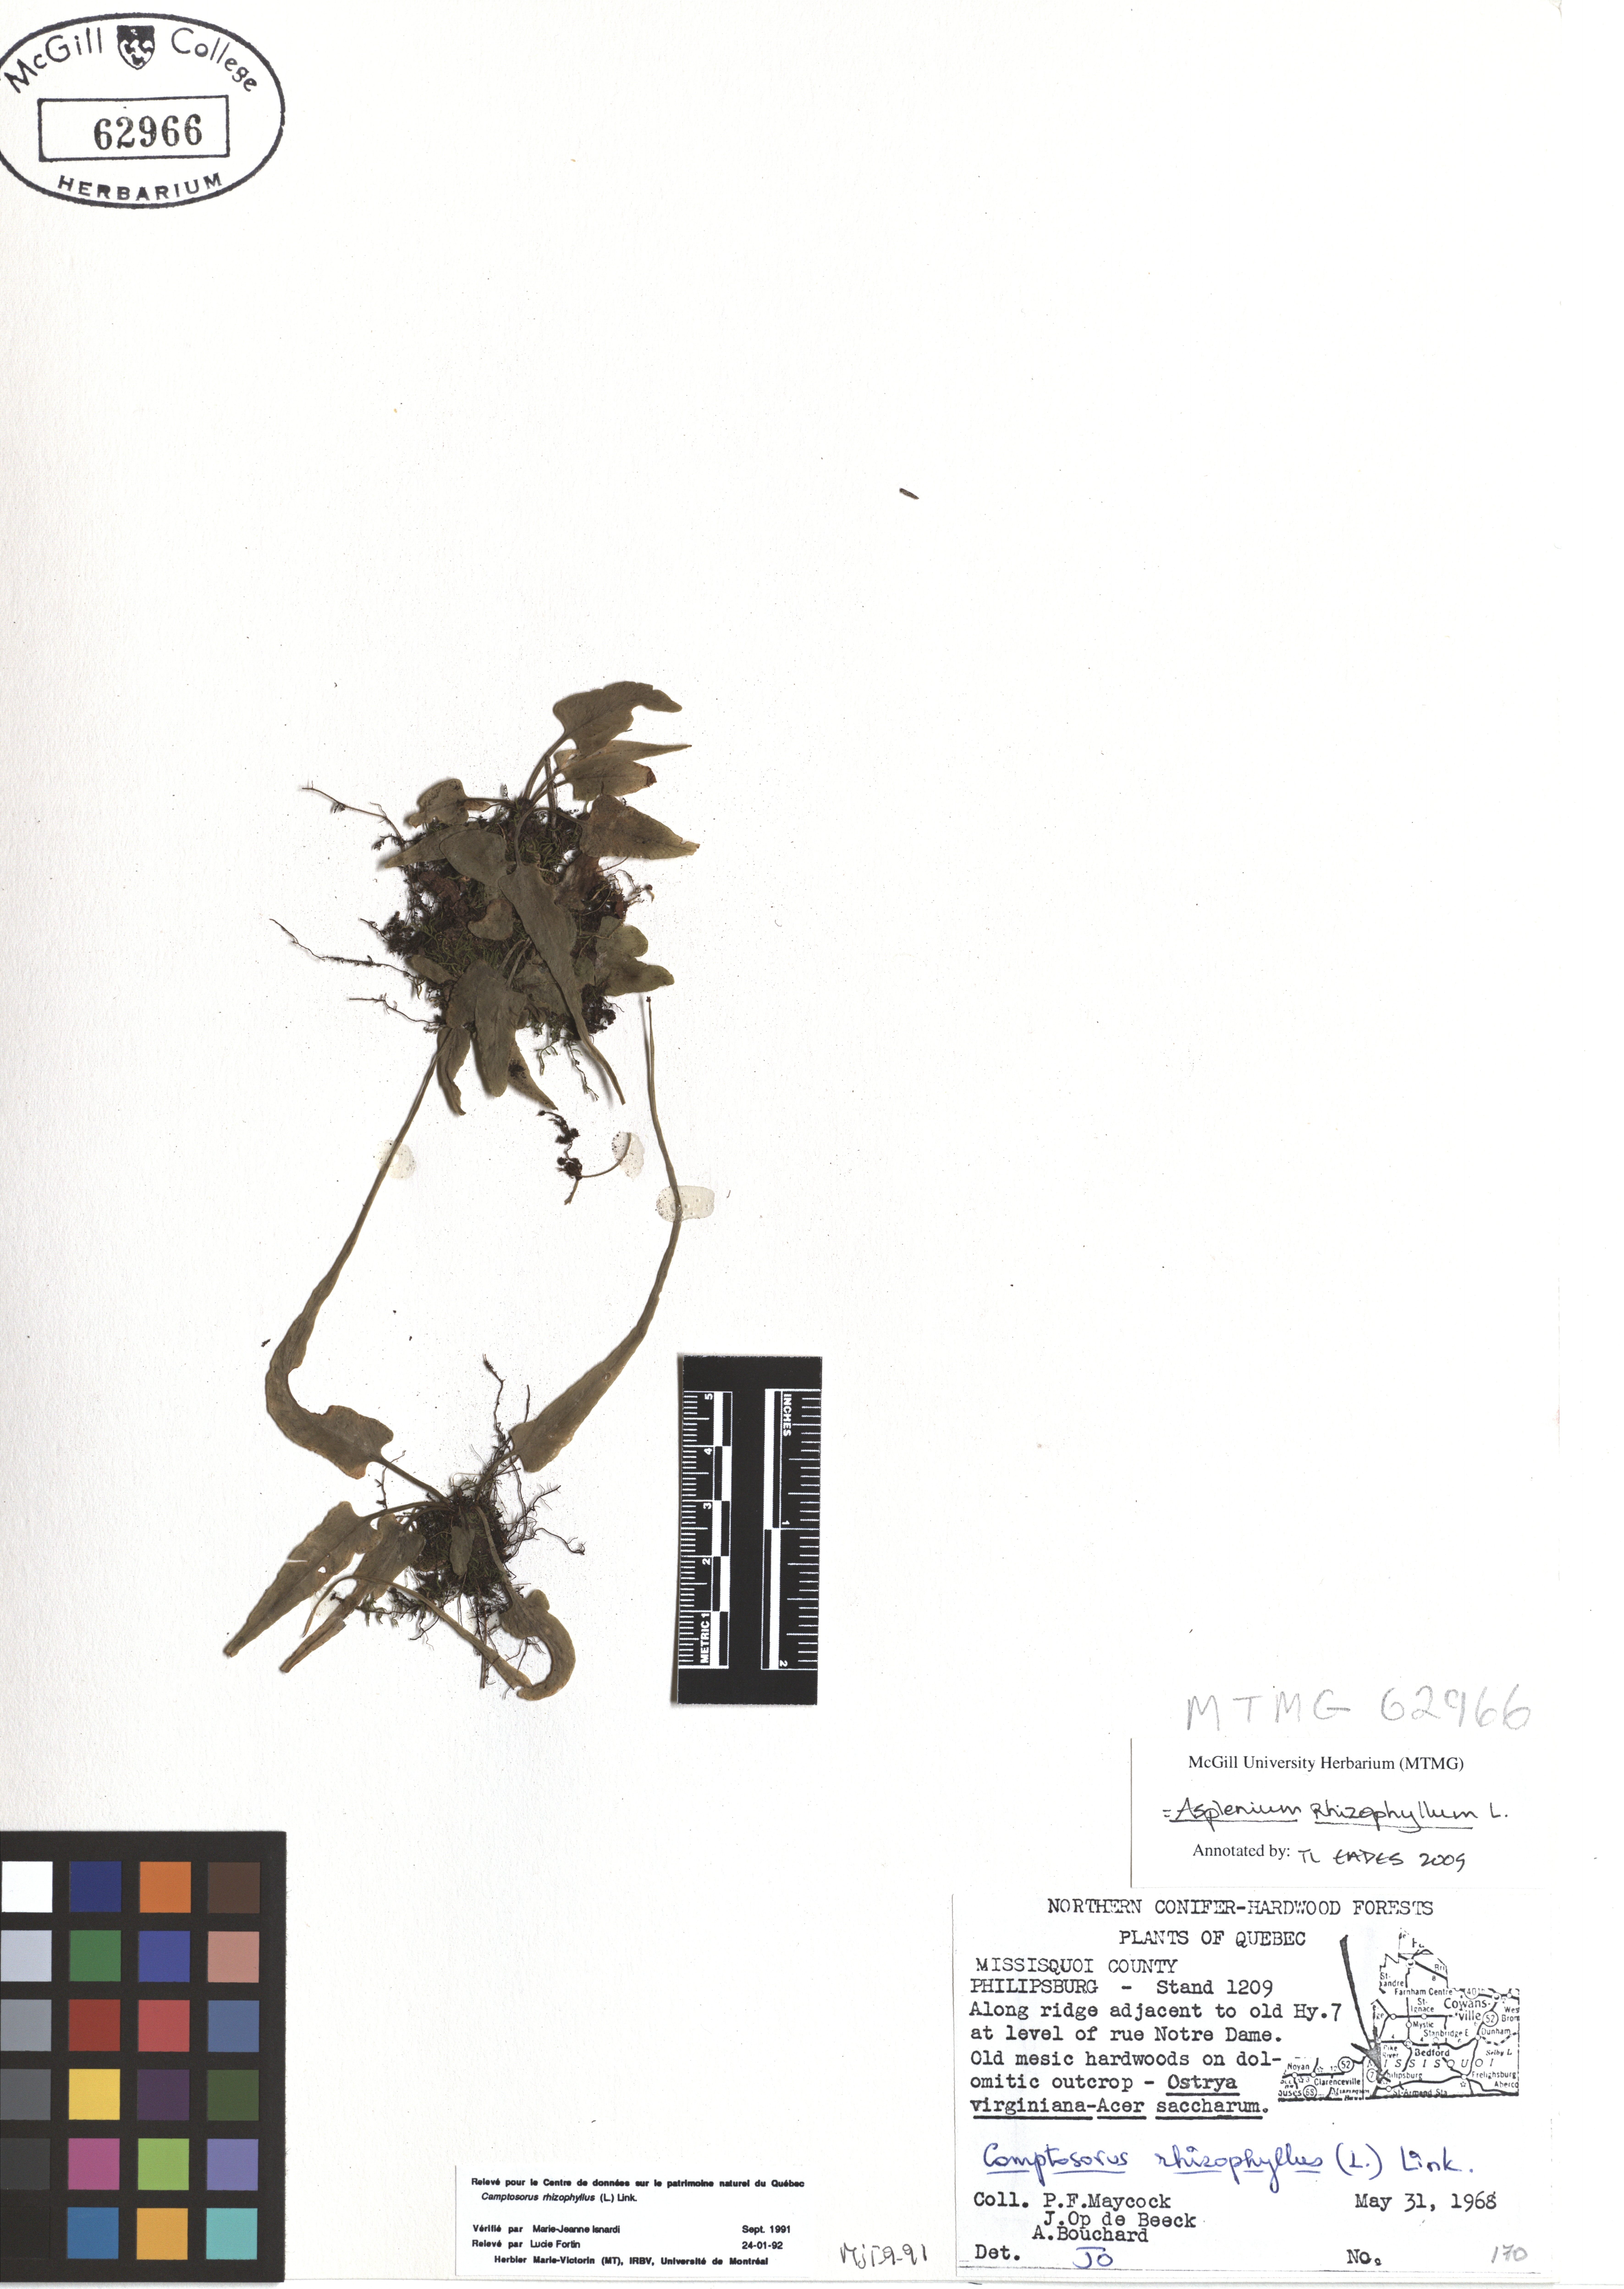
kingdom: Plantae
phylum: Tracheophyta
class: Polypodiopsida
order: Polypodiales
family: Aspleniaceae
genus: Asplenium
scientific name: Asplenium radicans
